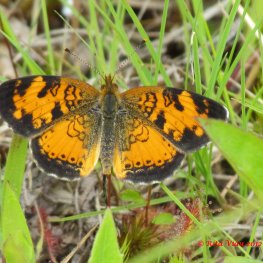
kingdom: Animalia
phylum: Arthropoda
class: Insecta
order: Lepidoptera
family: Nymphalidae
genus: Phyciodes
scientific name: Phyciodes tharos
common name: Northern Crescent
